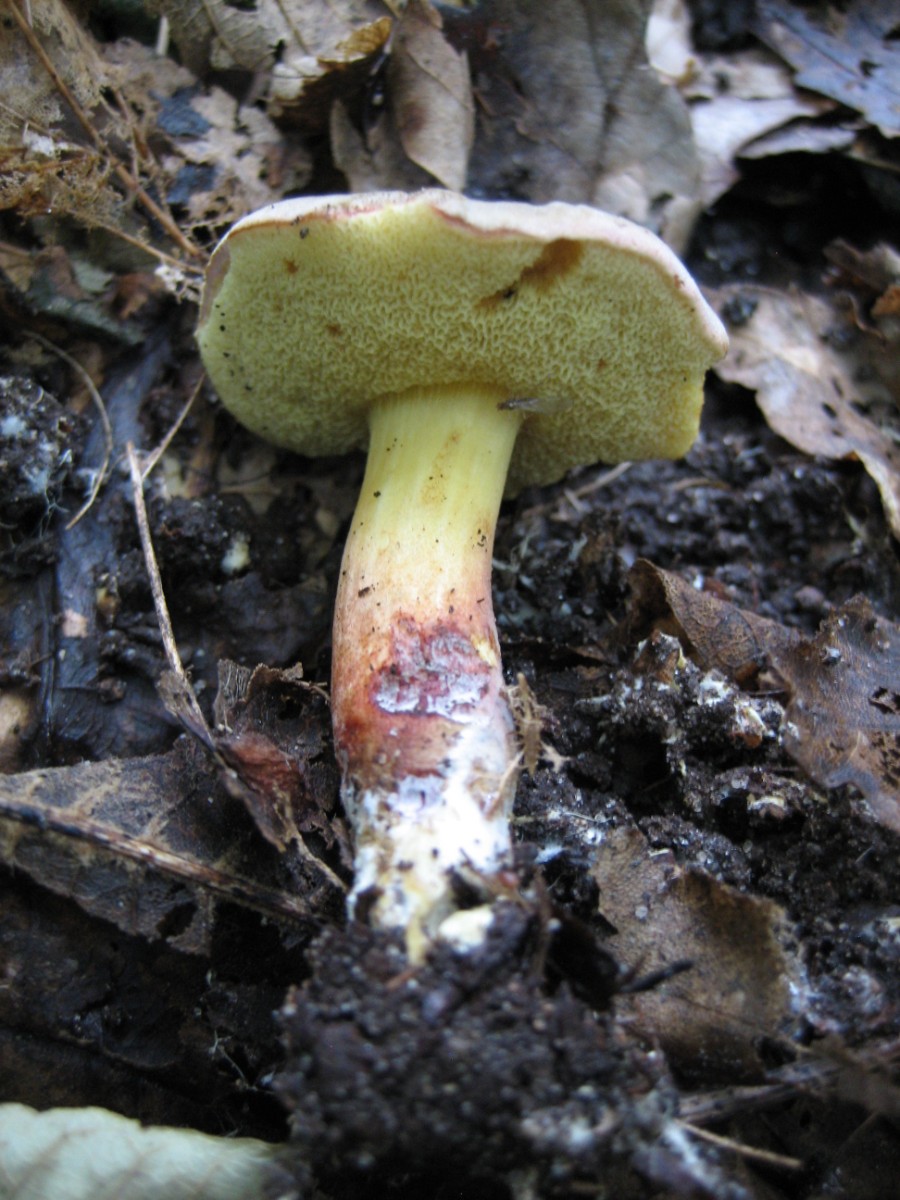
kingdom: Fungi
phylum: Basidiomycota
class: Agaricomycetes
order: Boletales
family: Boletaceae
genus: Xerocomellus
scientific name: Xerocomellus cisalpinus
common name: finsprukken rørhat
